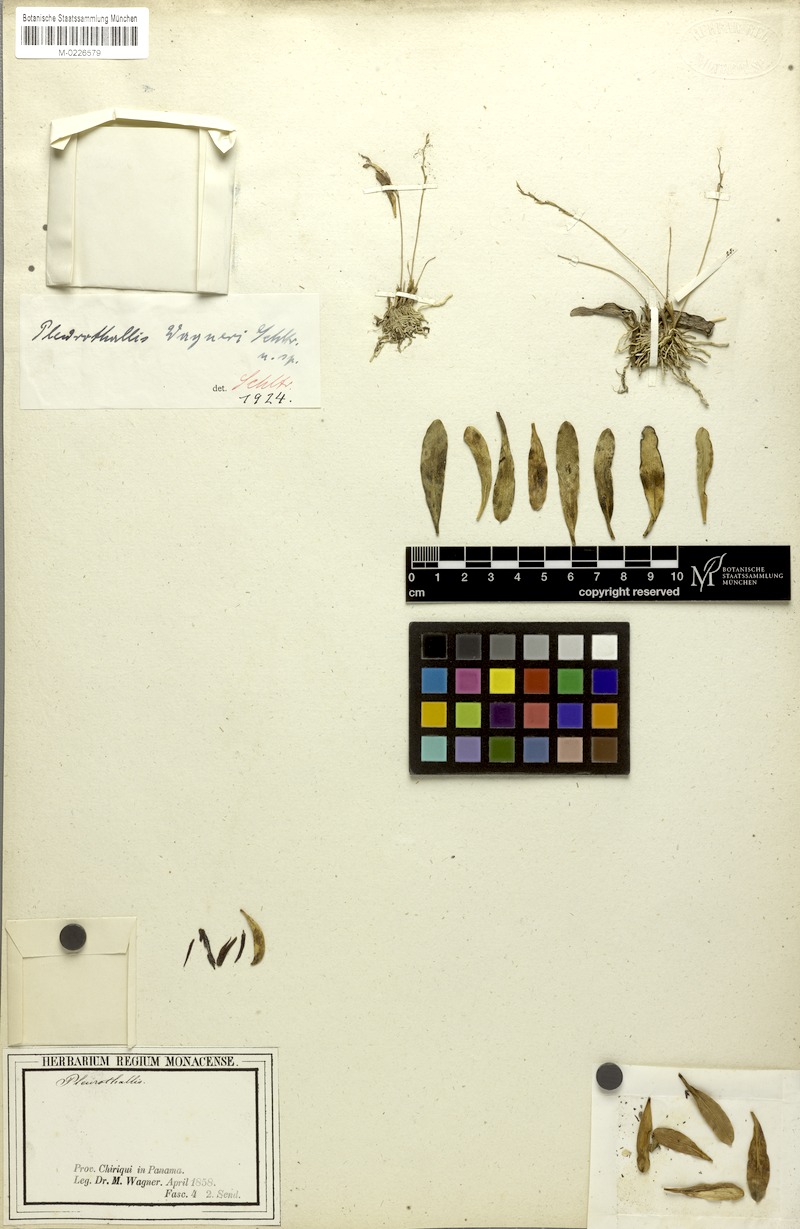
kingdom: Plantae
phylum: Tracheophyta
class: Liliopsida
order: Asparagales
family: Orchidaceae
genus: Stelis
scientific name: Stelis wagneri
